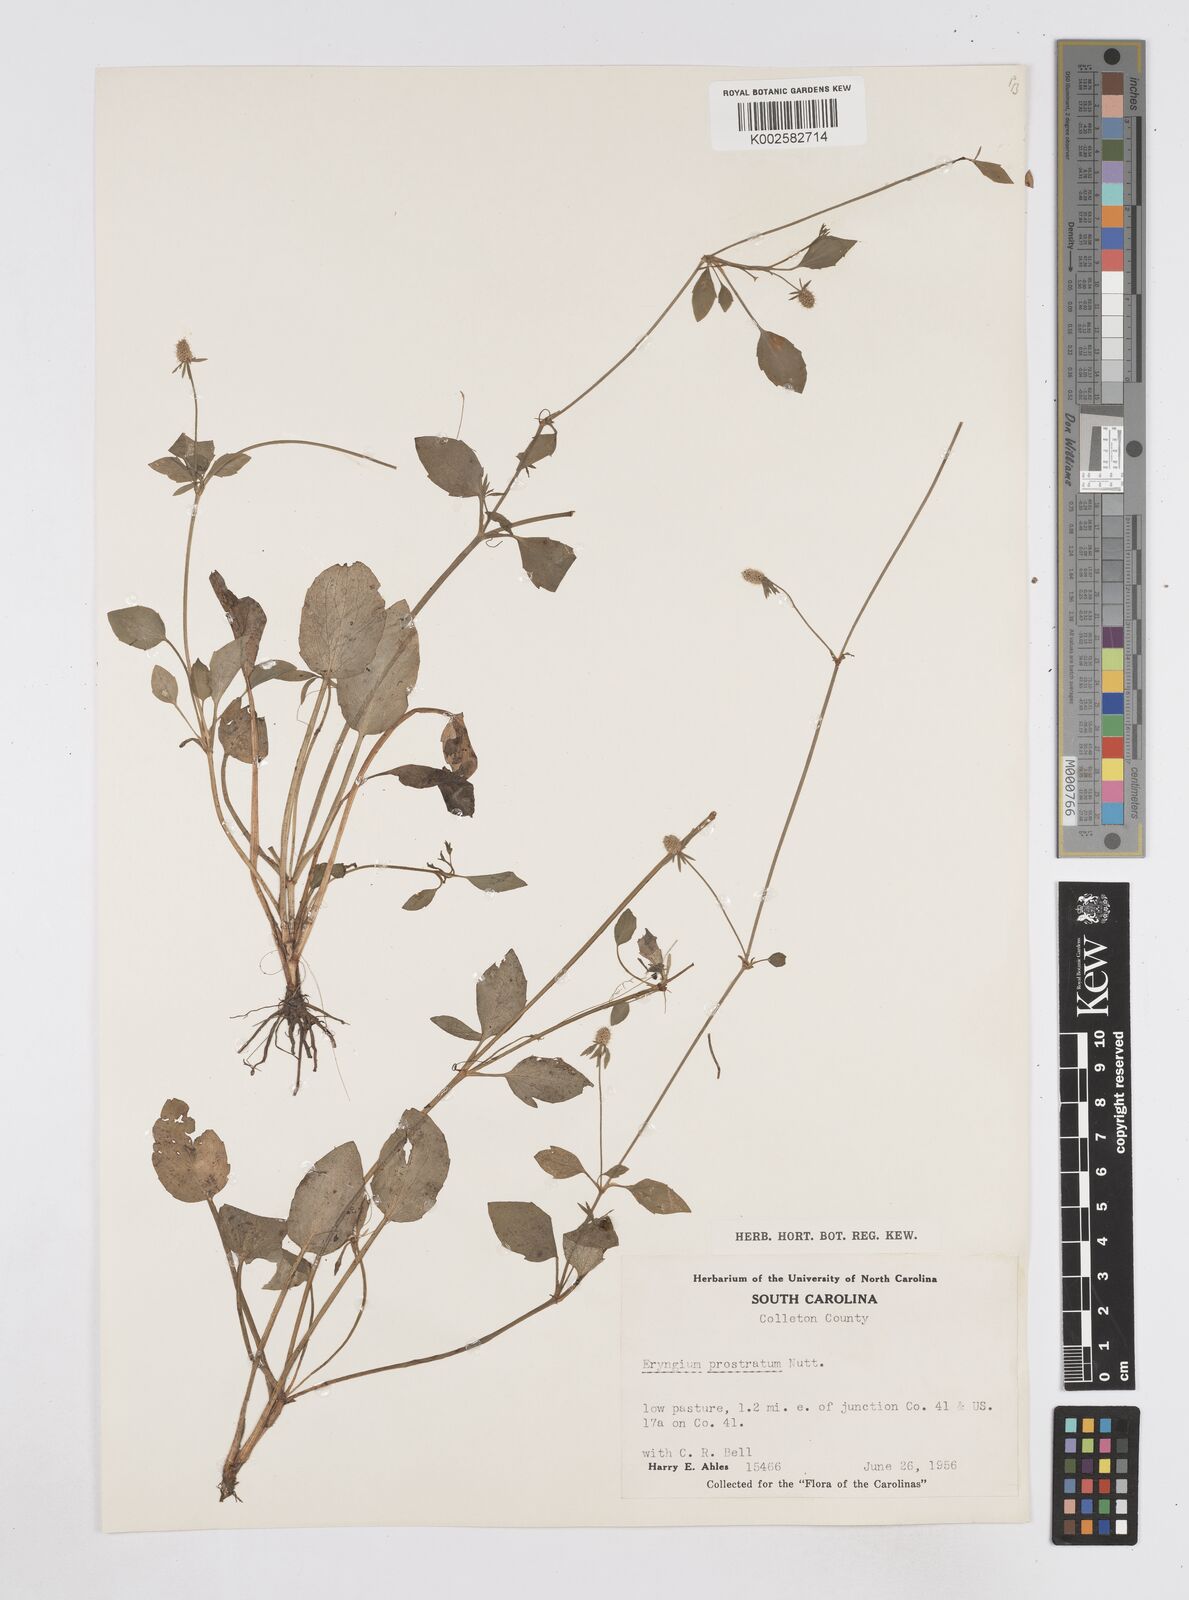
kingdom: Plantae
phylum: Tracheophyta
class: Magnoliopsida
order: Apiales
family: Apiaceae
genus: Eryngium
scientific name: Eryngium prostratum
